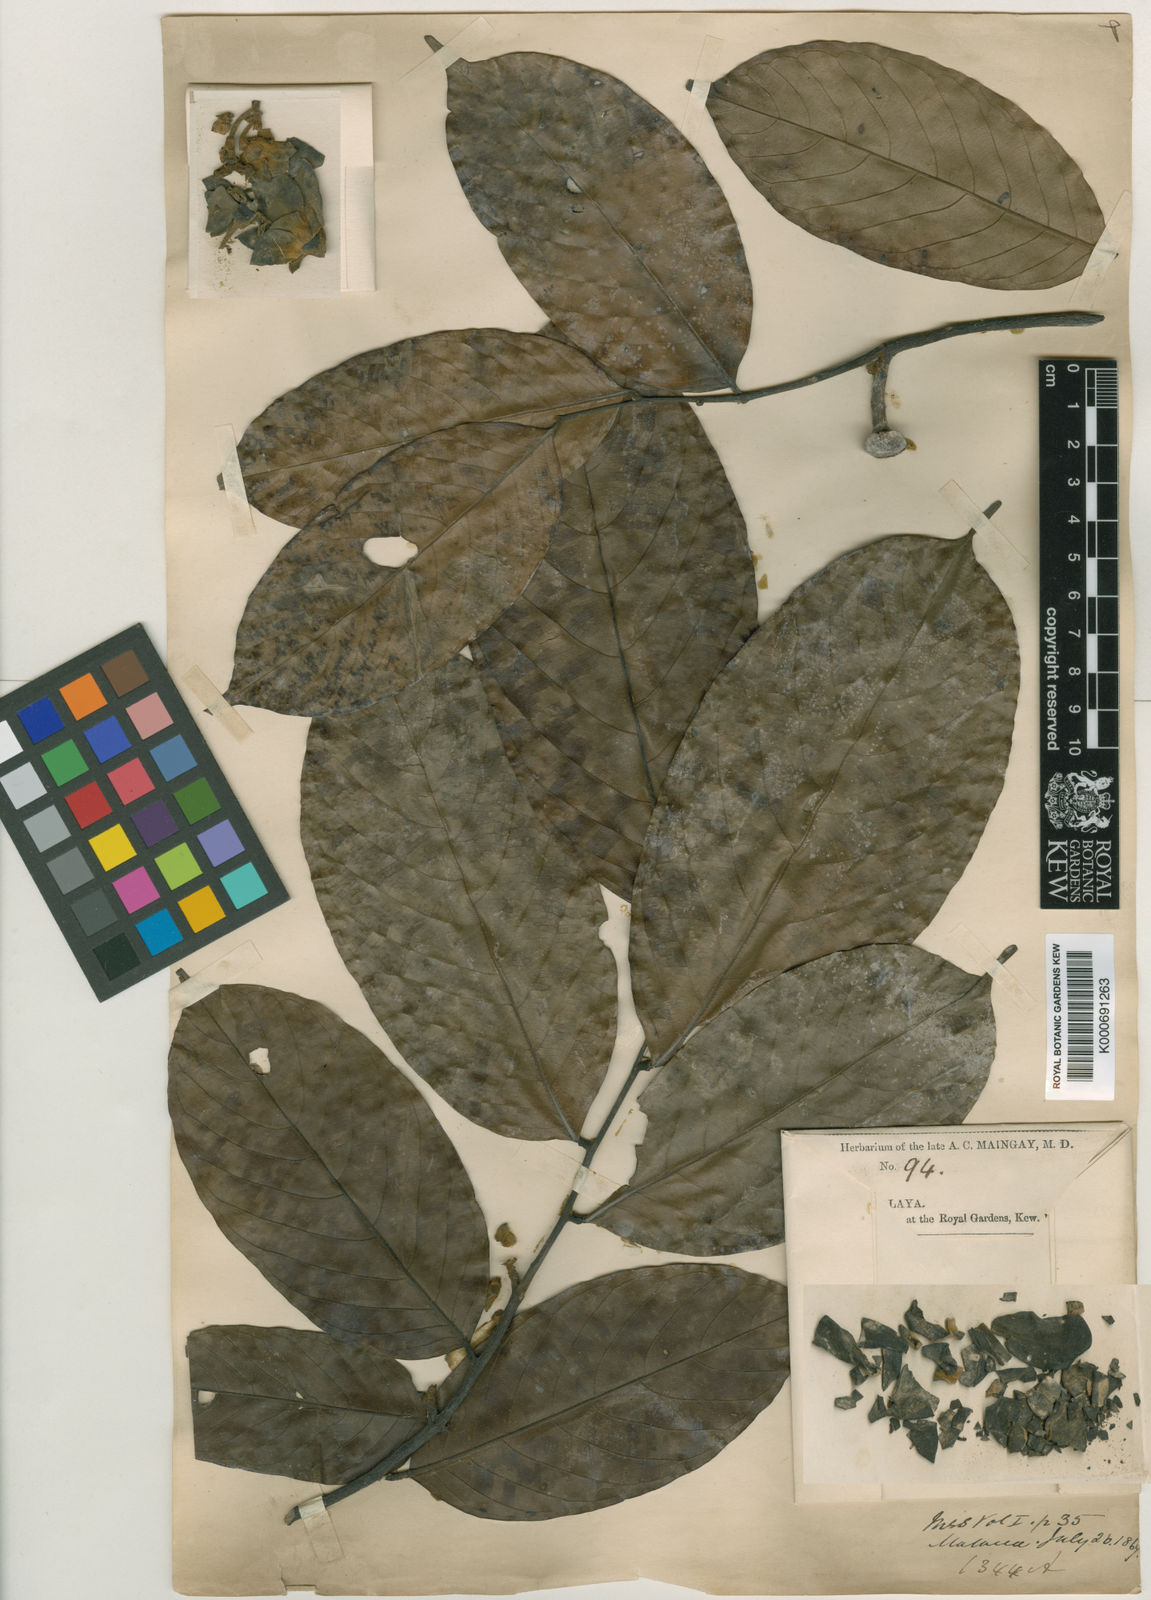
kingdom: Plantae
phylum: Tracheophyta
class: Magnoliopsida
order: Magnoliales
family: Annonaceae
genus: Monocarpia
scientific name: Monocarpia marginalis
